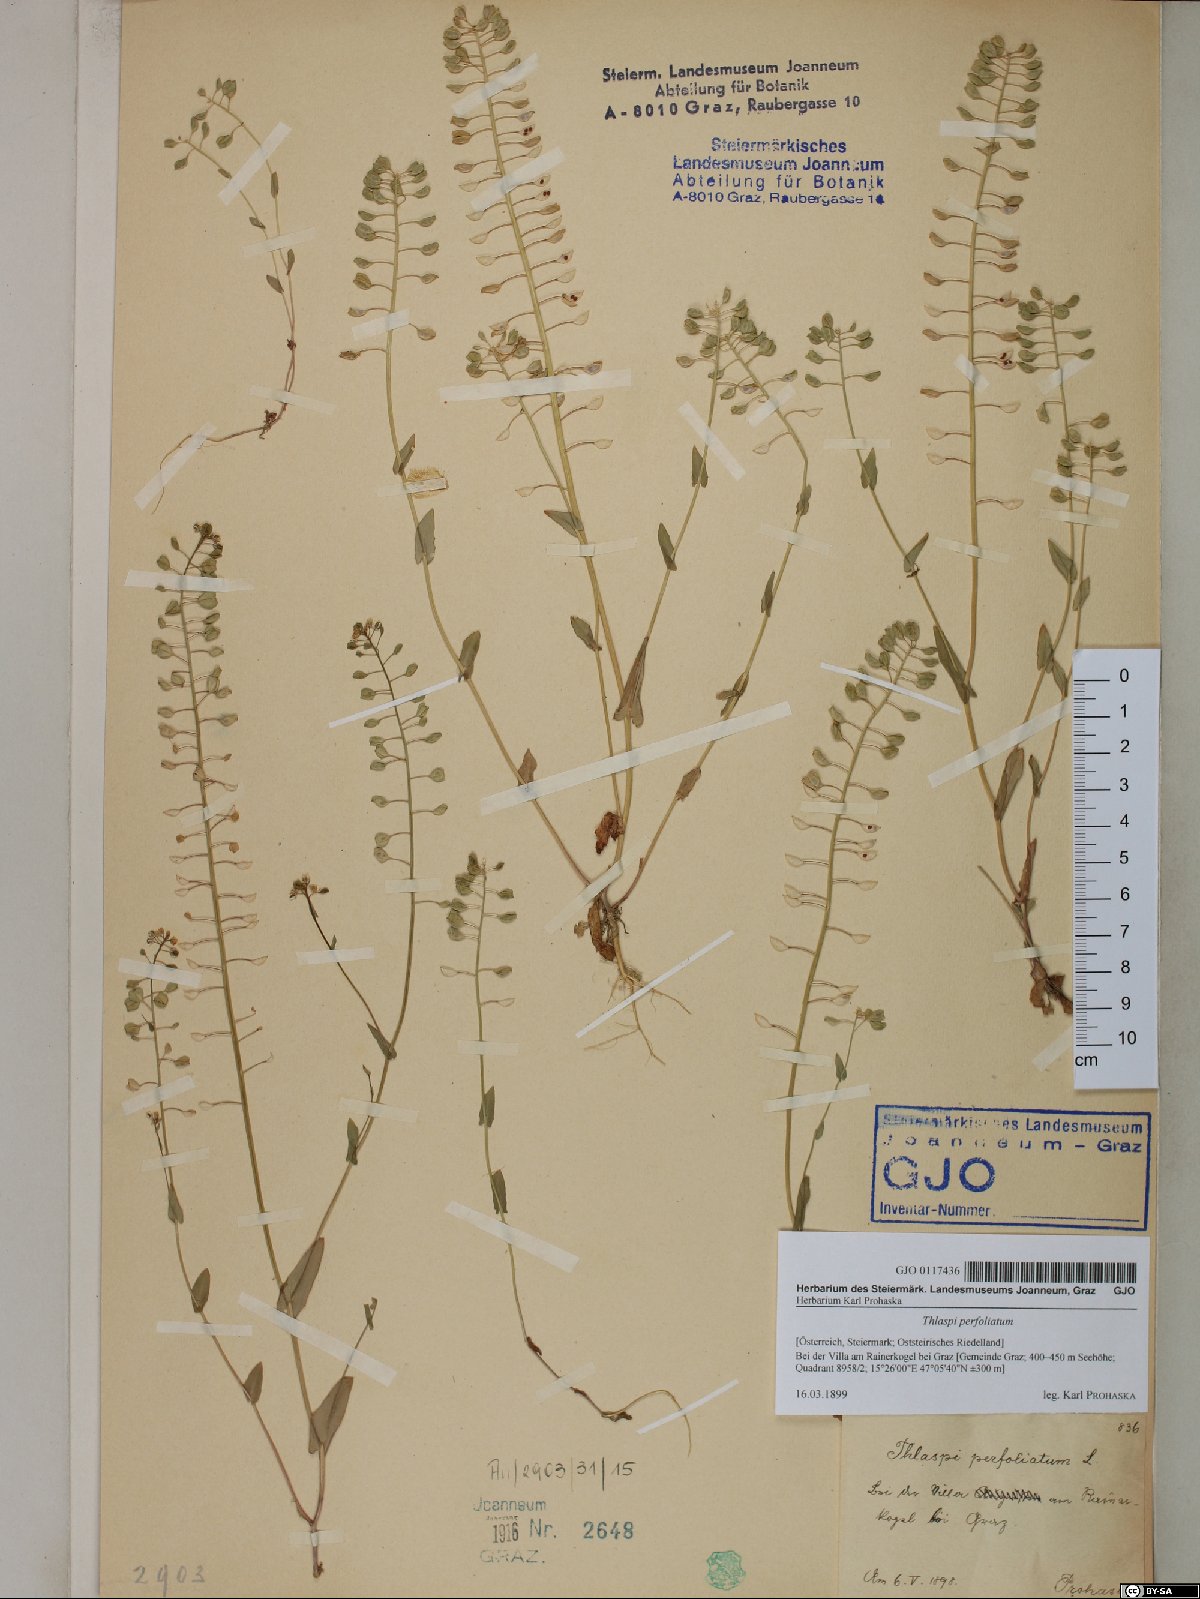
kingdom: Plantae
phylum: Tracheophyta
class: Magnoliopsida
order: Brassicales
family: Brassicaceae
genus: Noccaea
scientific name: Noccaea perfoliata
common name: Perfoliate pennycress
